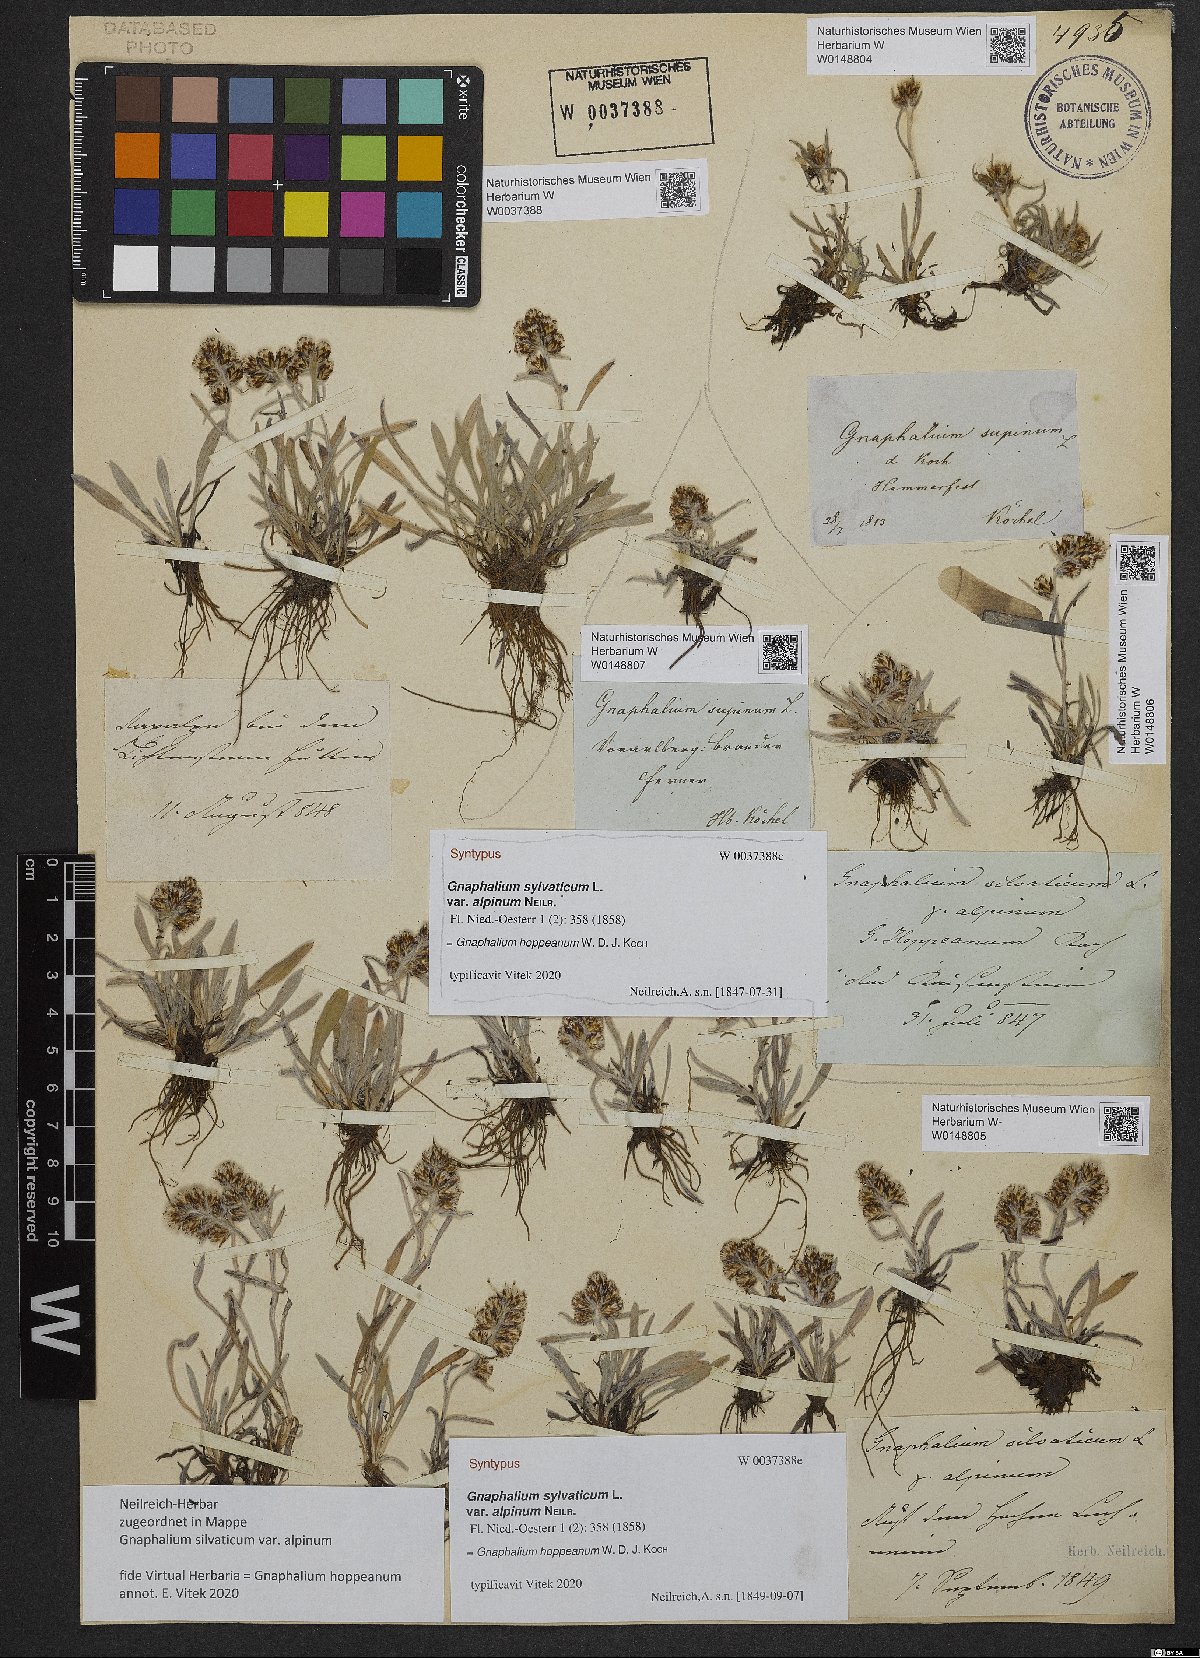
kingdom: Plantae
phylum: Tracheophyta
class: Magnoliopsida
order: Asterales
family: Asteraceae
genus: Omalotheca
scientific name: Omalotheca hoppeana
